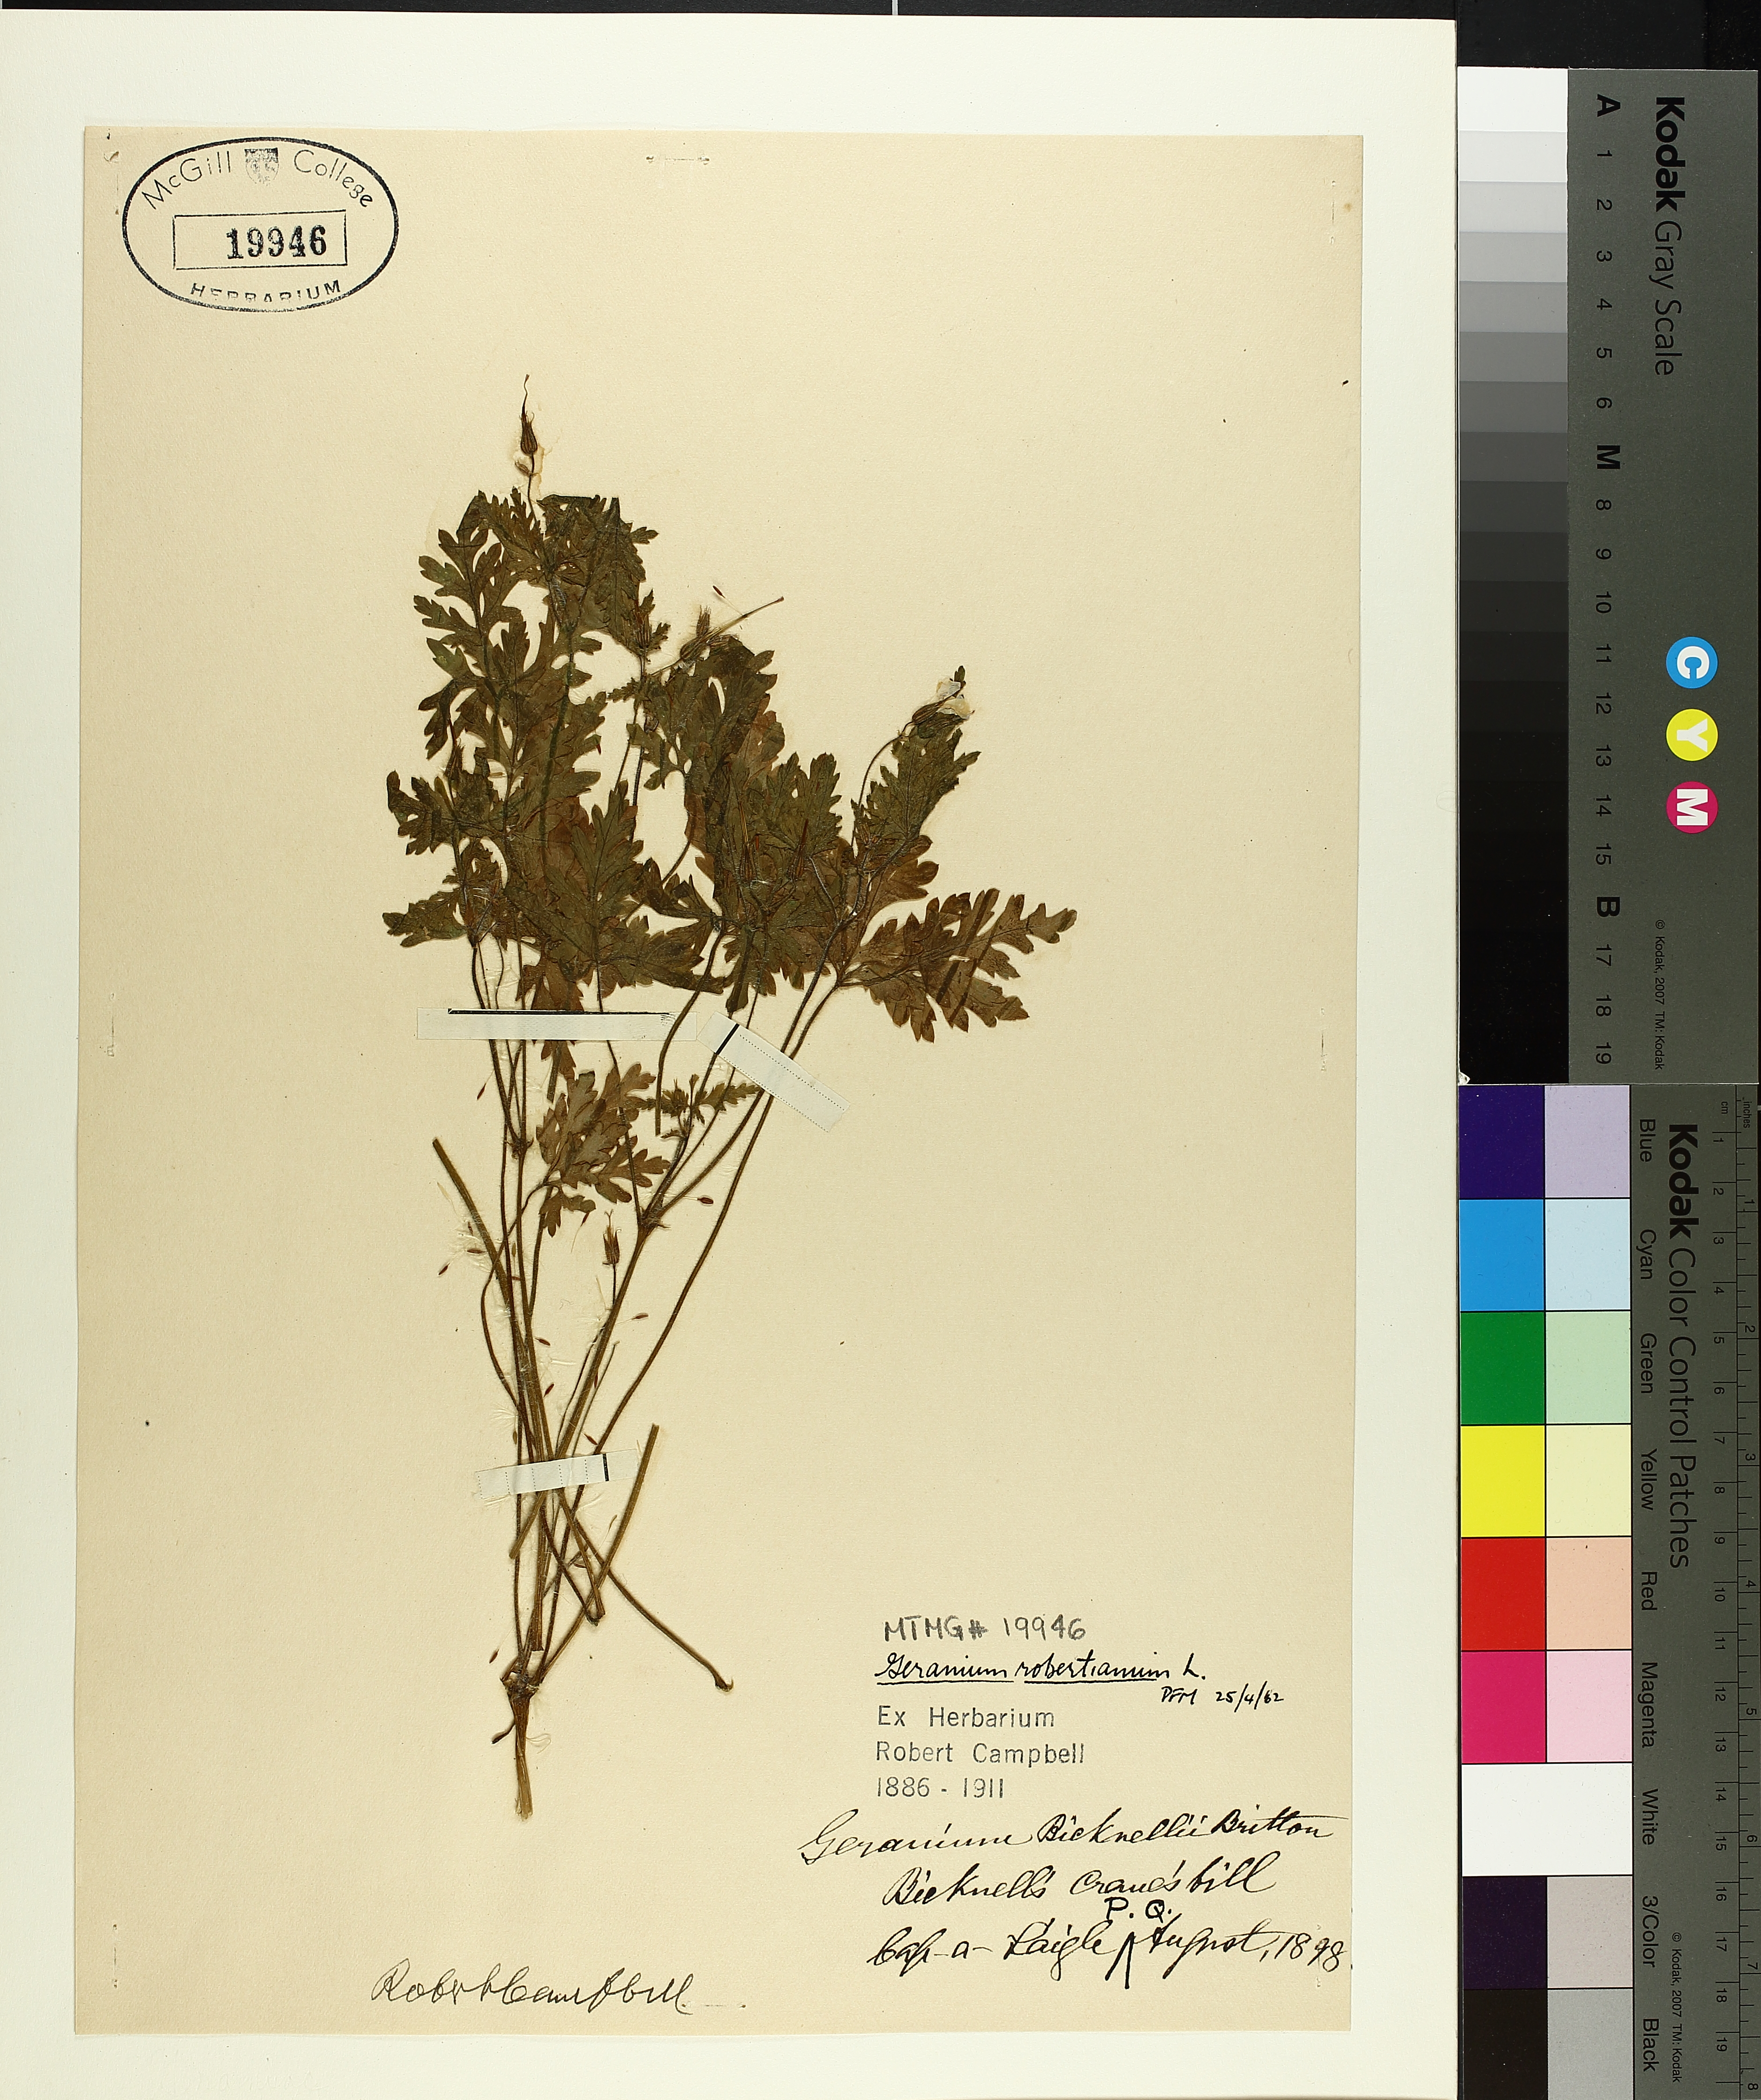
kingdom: Plantae
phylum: Tracheophyta
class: Magnoliopsida
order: Geraniales
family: Geraniaceae
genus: Geranium
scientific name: Geranium robertianum
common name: Herb-robert
